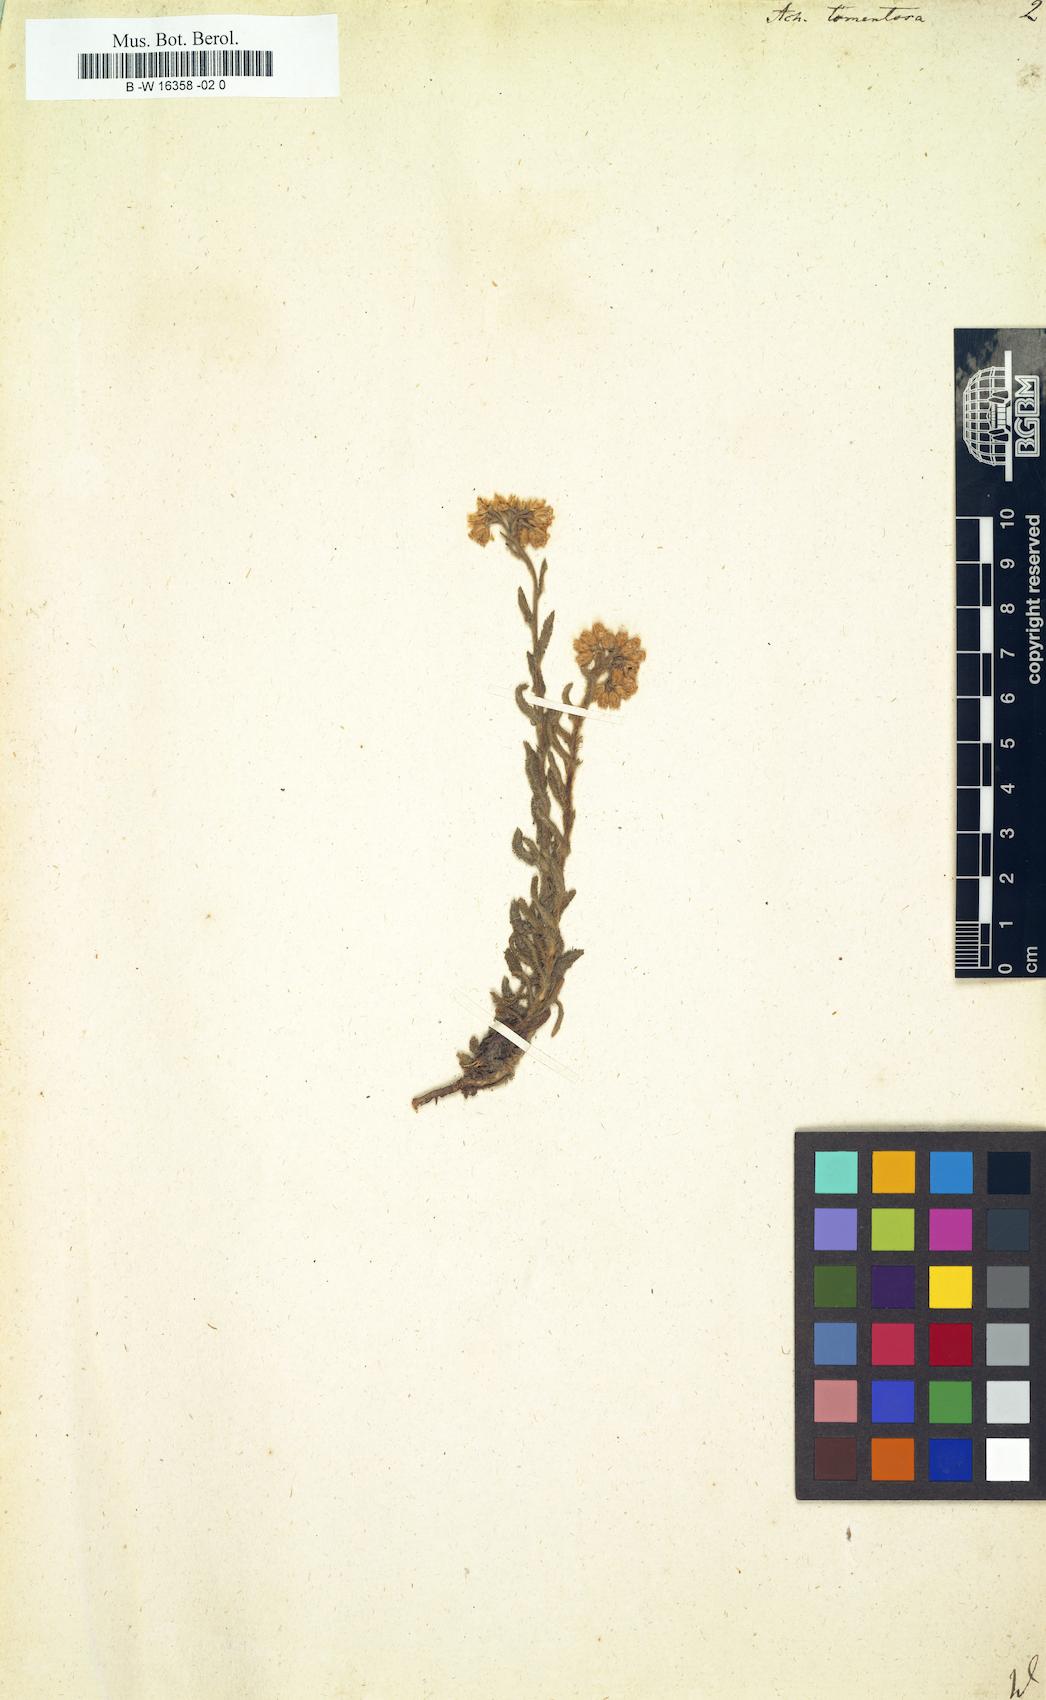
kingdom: Plantae
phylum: Tracheophyta
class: Magnoliopsida
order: Asterales
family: Asteraceae
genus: Achillea
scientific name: Achillea tomentosa
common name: Yellow milfoil
